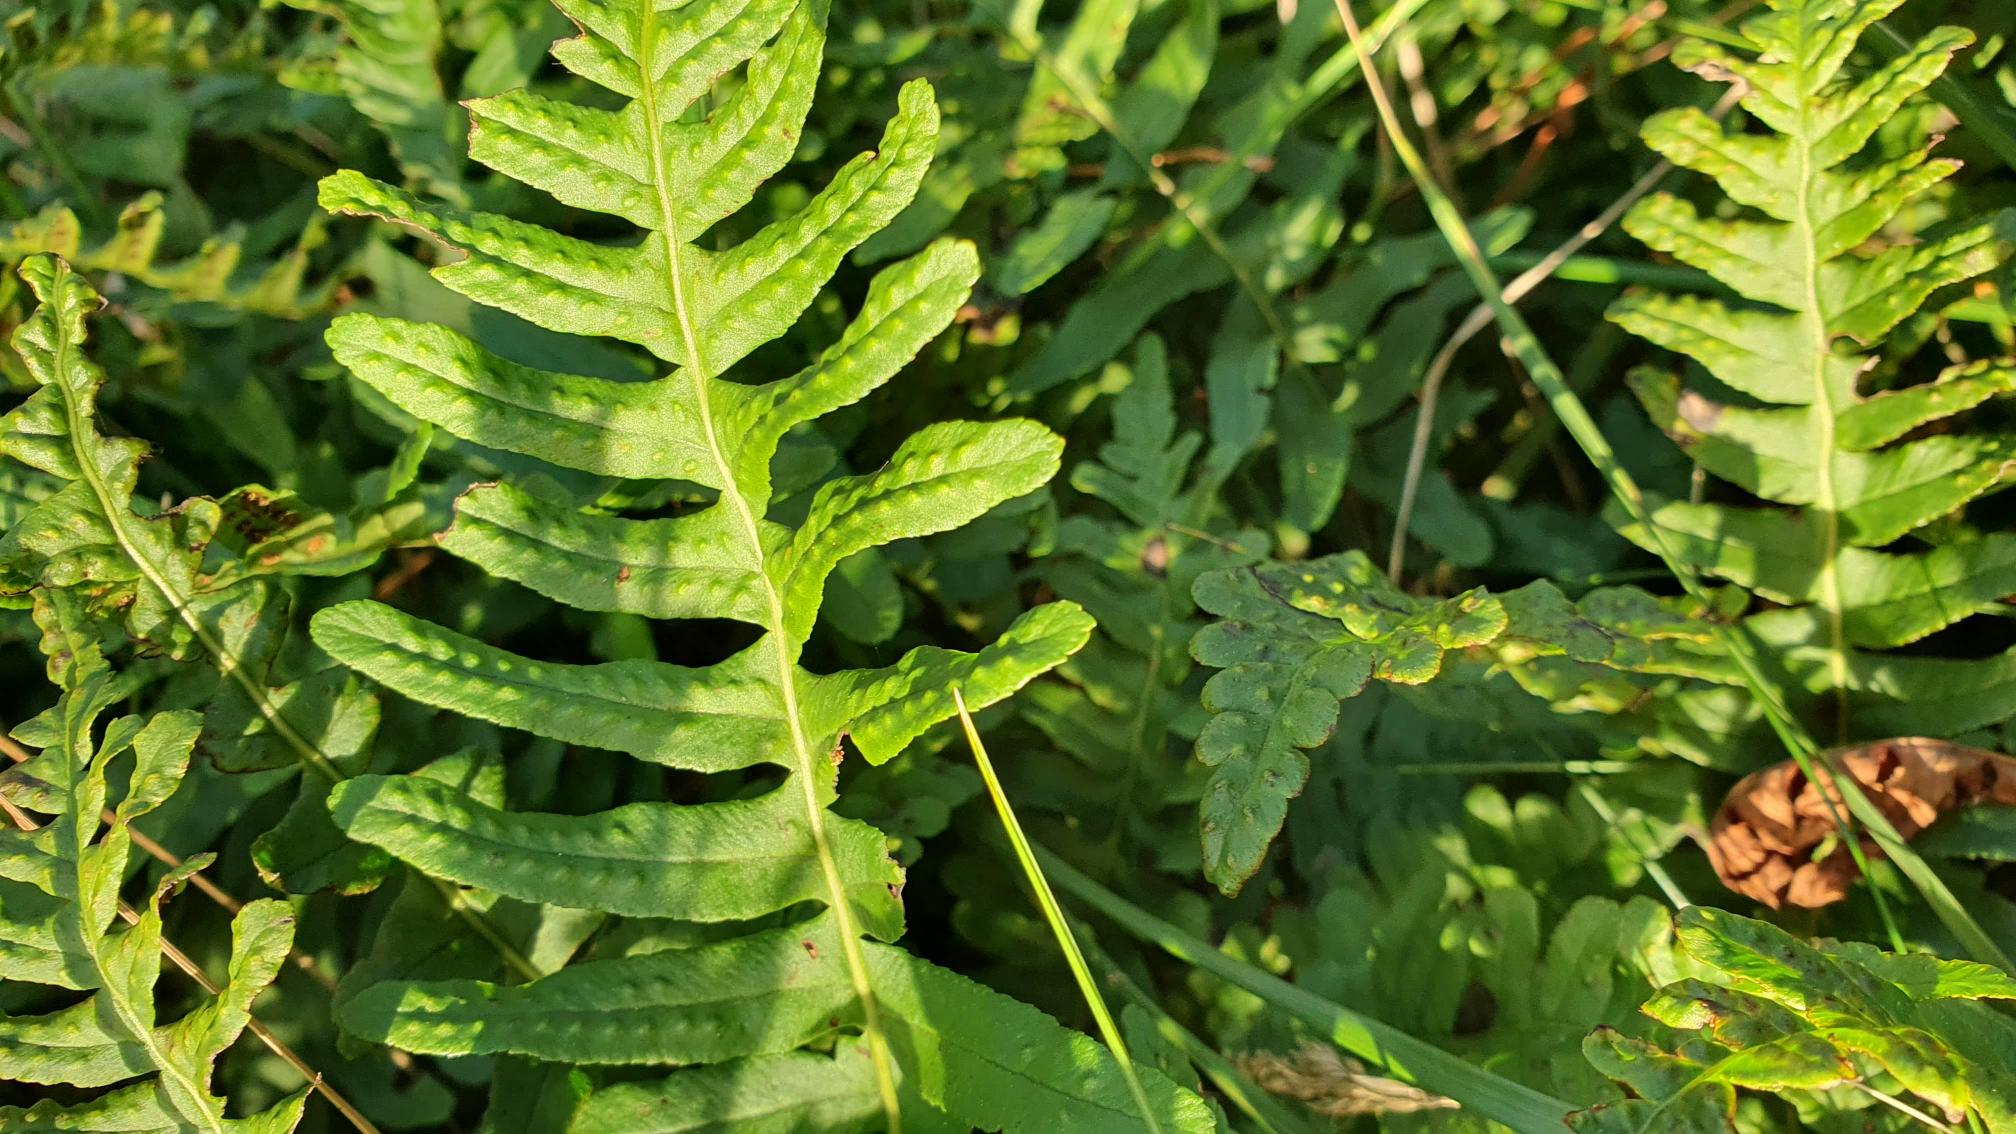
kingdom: Plantae
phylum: Tracheophyta
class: Polypodiopsida
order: Polypodiales
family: Polypodiaceae
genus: Polypodium
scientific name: Polypodium vulgare
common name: Almindelig engelsød
